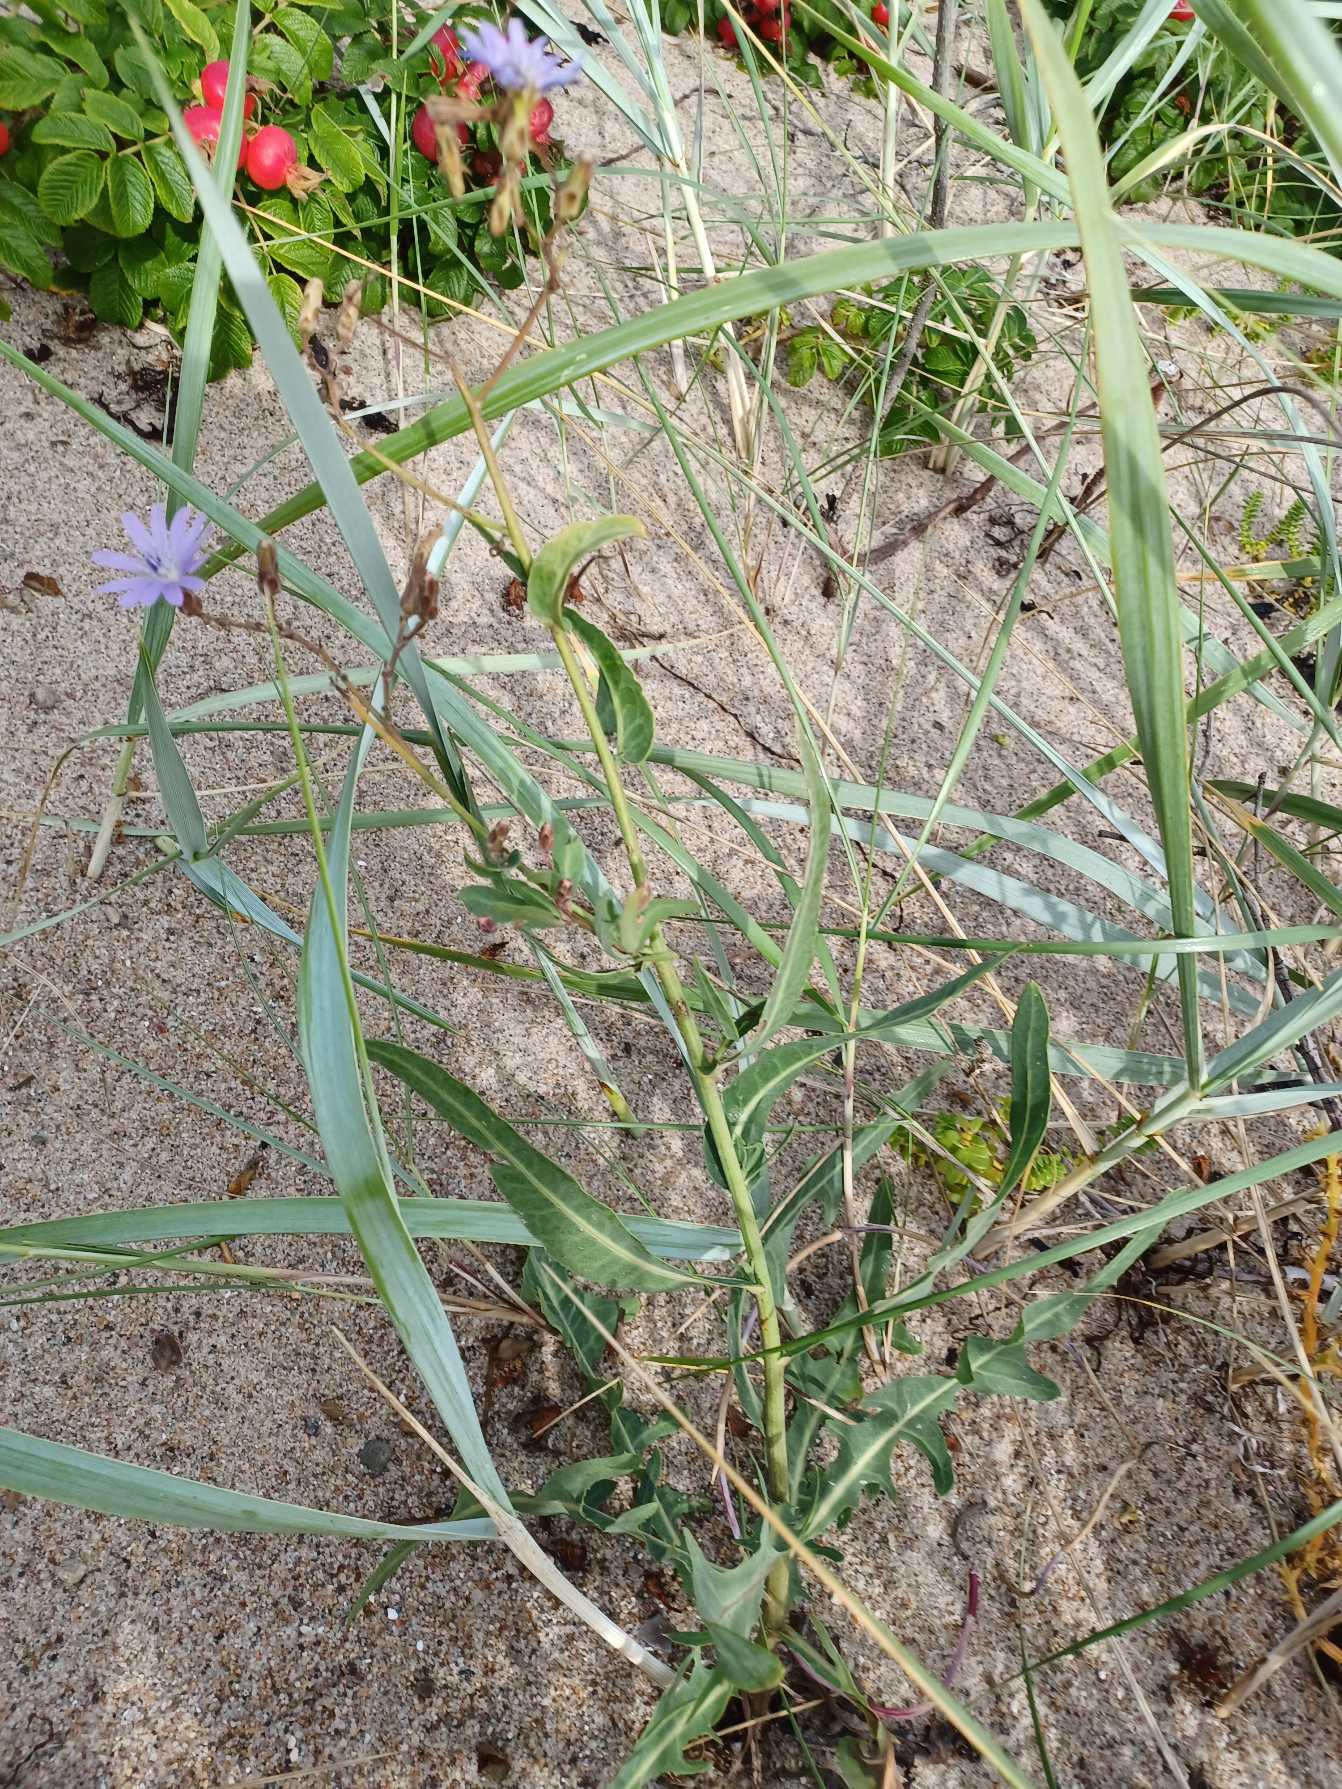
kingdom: Plantae
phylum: Tracheophyta
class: Magnoliopsida
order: Asterales
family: Asteraceae
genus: Lactuca
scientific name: Lactuca tatarica
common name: Strand-salat
